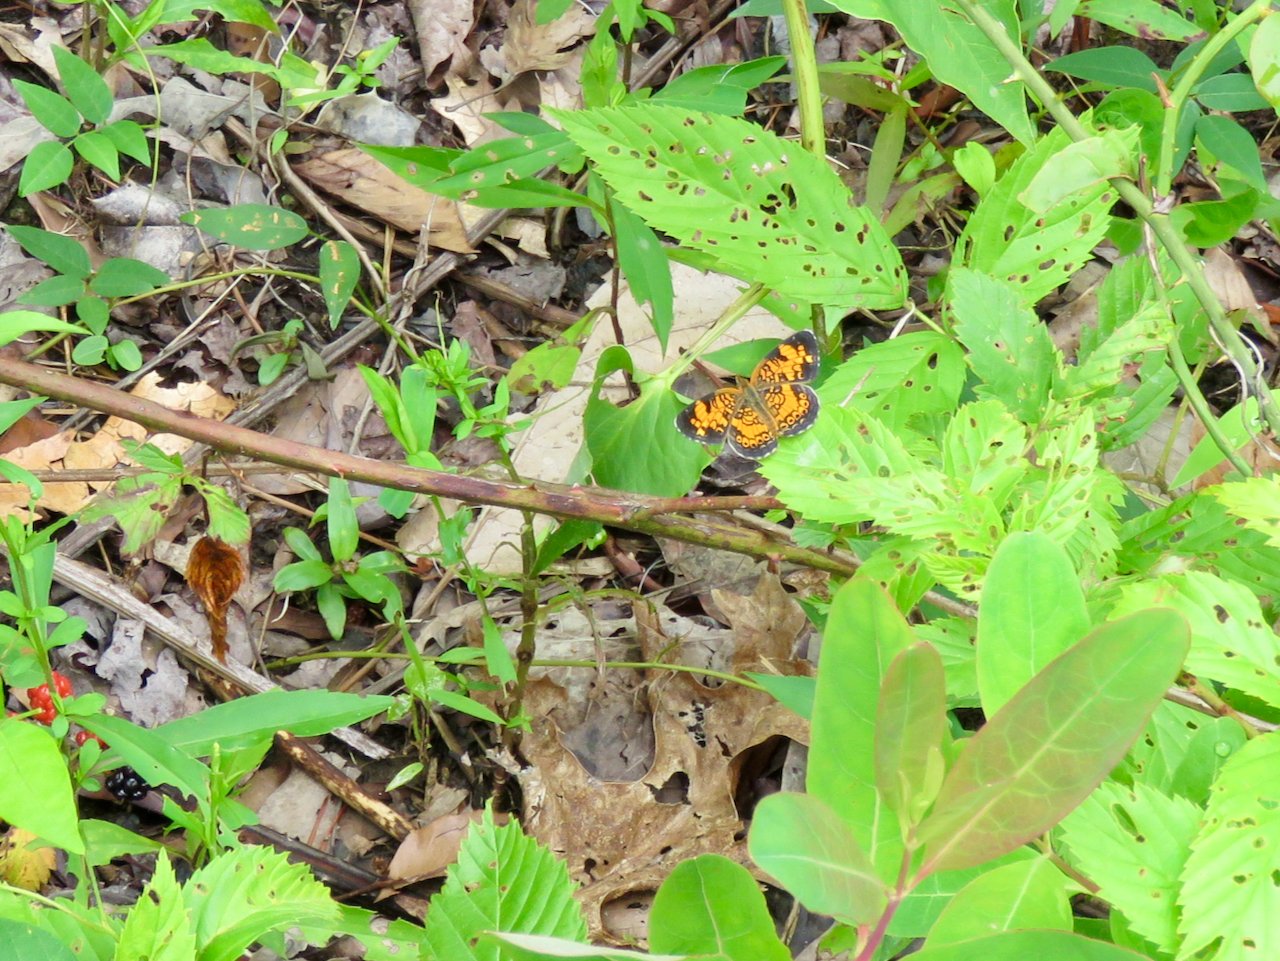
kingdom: Animalia
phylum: Arthropoda
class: Insecta
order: Lepidoptera
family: Nymphalidae
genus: Phyciodes
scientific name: Phyciodes tharos
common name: Pearl Crescent
